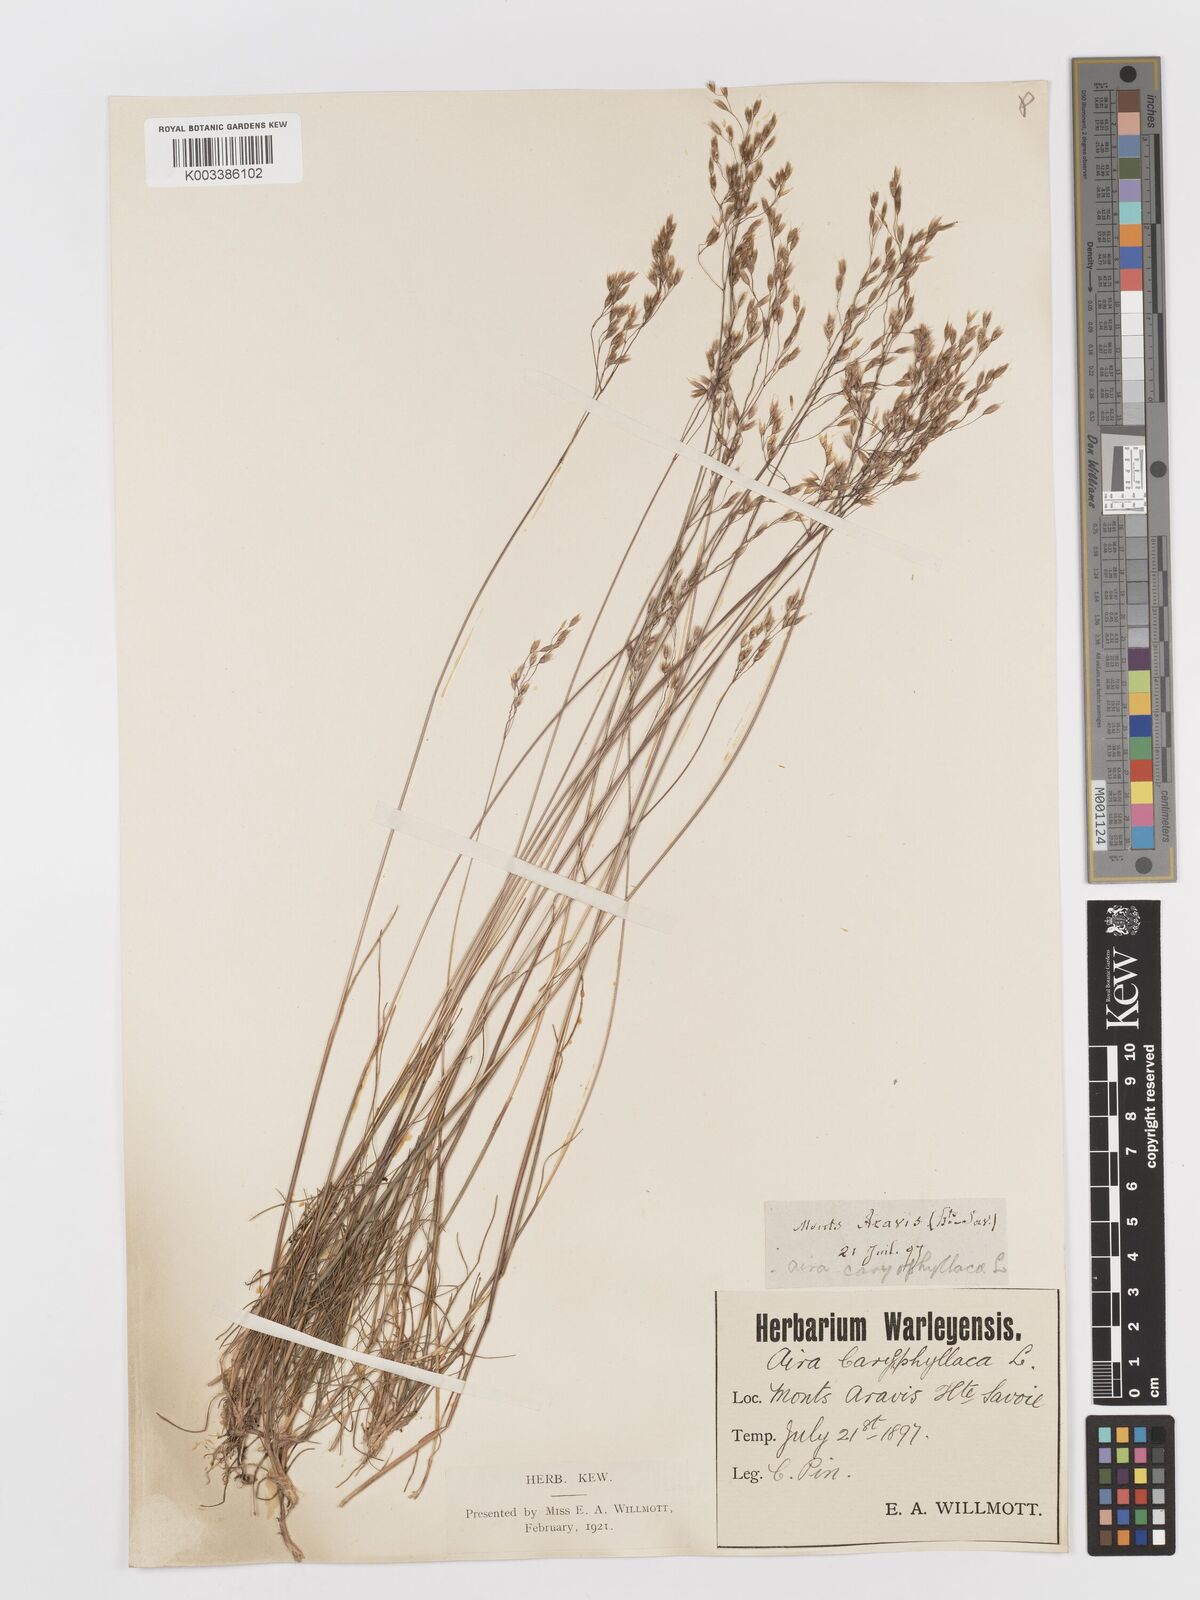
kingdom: Plantae
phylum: Tracheophyta
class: Liliopsida
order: Poales
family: Poaceae
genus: Avenella
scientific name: Avenella flexuosa
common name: Wavy hairgrass
